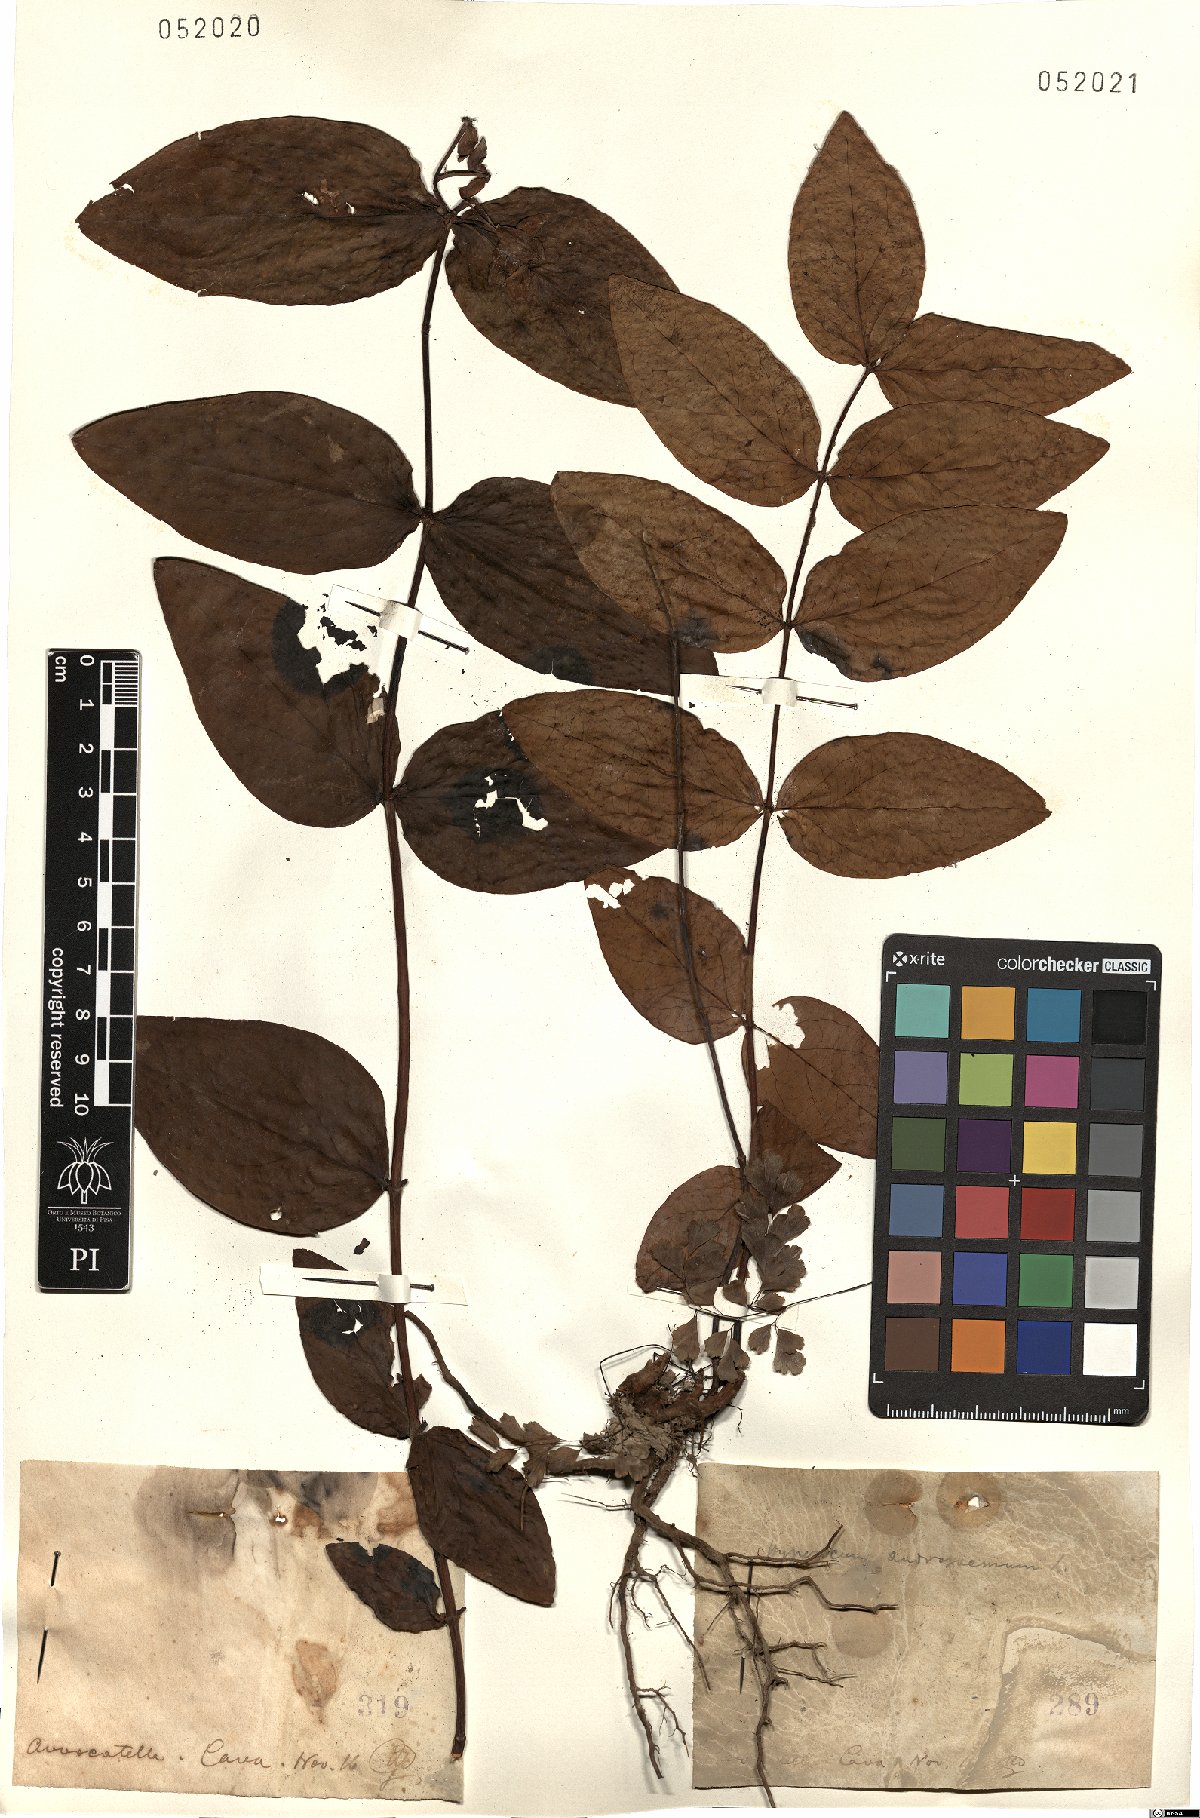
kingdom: Plantae
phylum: Tracheophyta
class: Magnoliopsida
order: Malpighiales
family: Hypericaceae
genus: Hypericum
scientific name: Hypericum androsaemum
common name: Sweet-amber
